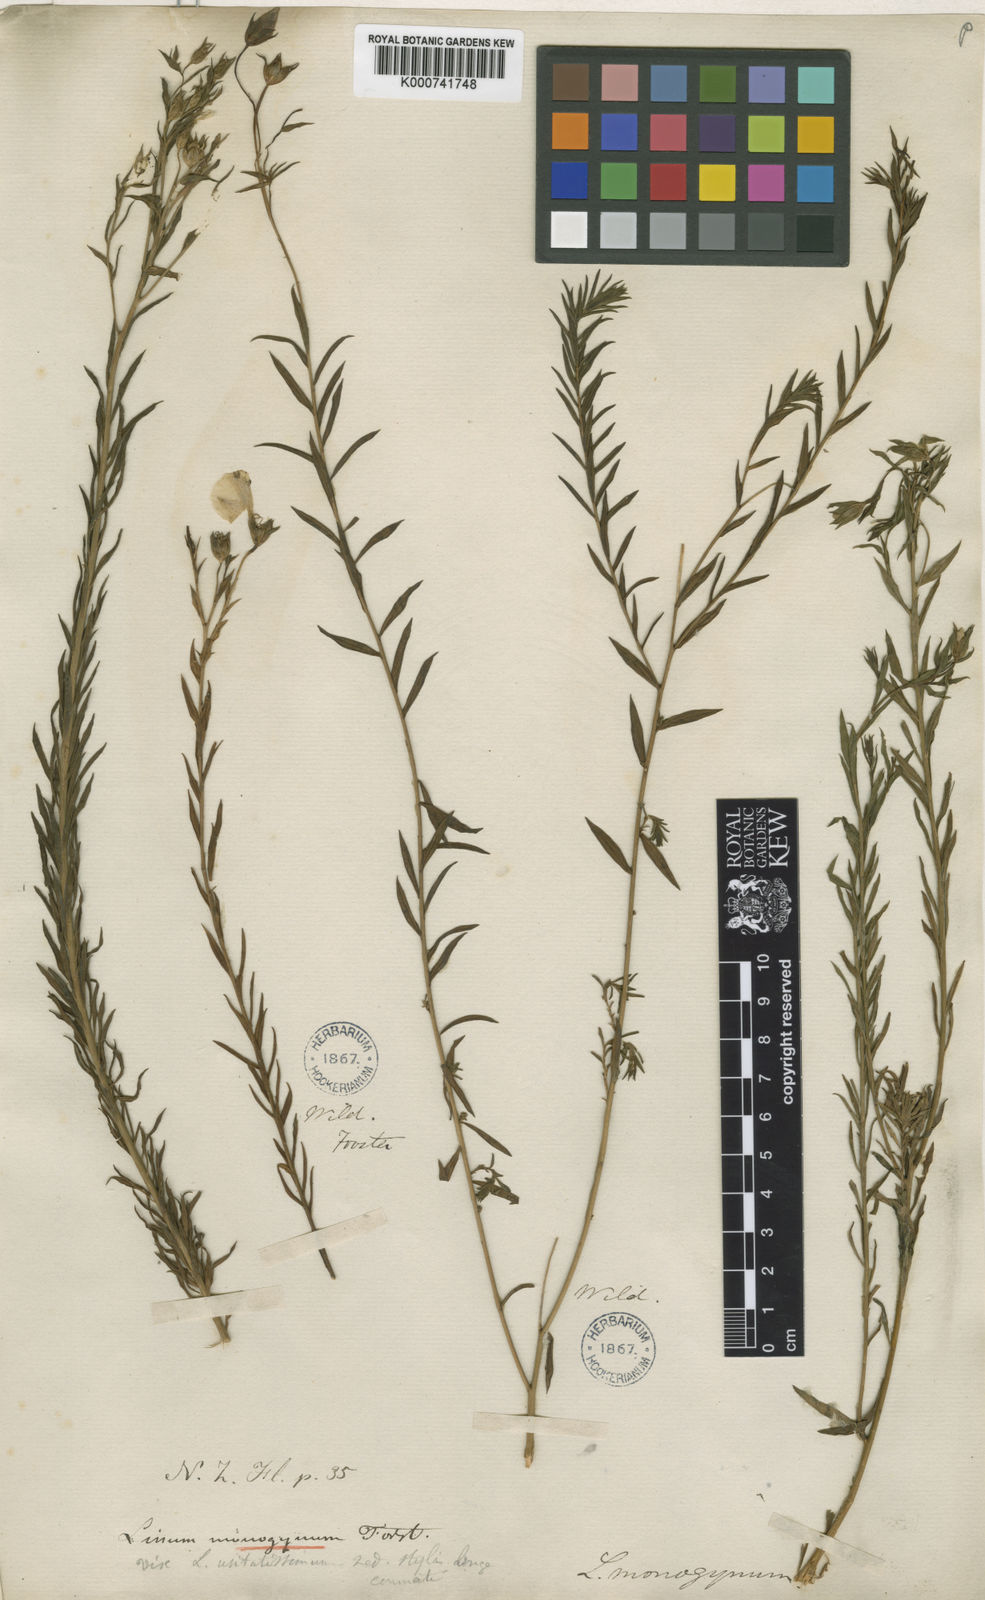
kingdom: Plantae
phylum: Tracheophyta
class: Magnoliopsida
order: Malpighiales
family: Linaceae
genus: Linum
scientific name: Linum monogynum
